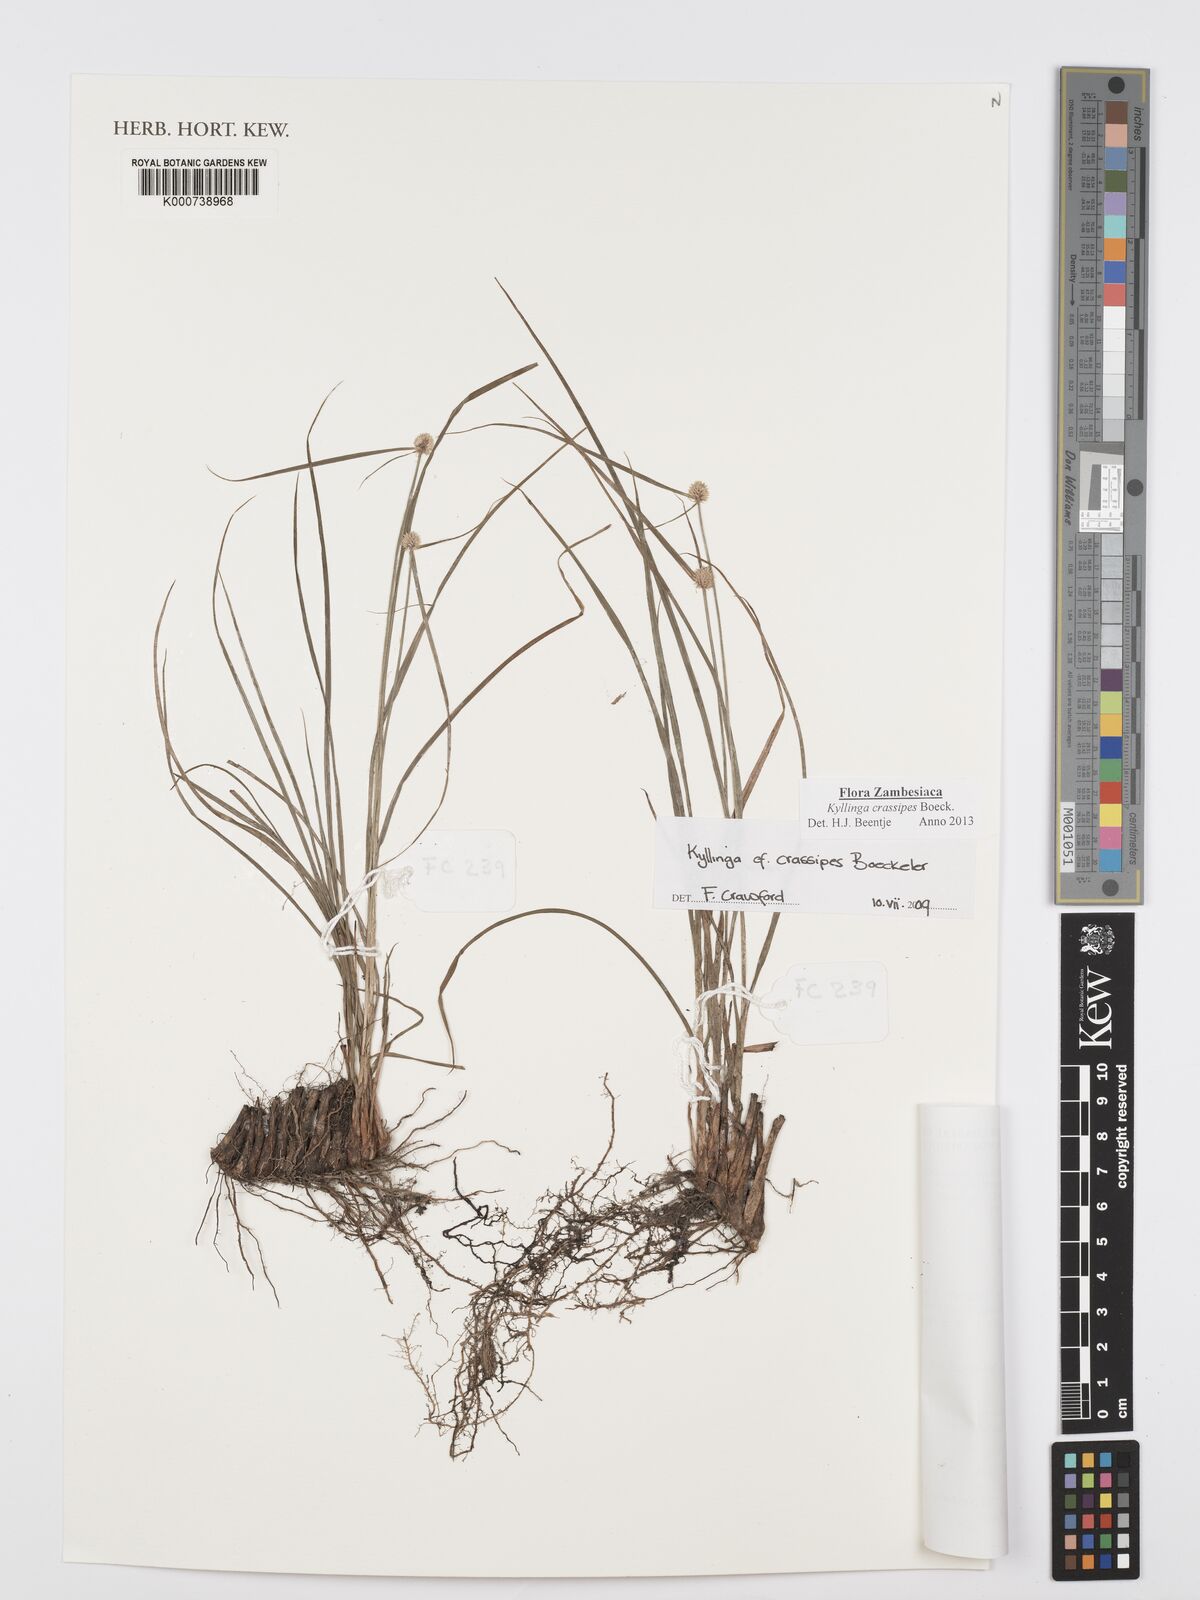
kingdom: Plantae
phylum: Tracheophyta
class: Liliopsida
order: Poales
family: Cyperaceae
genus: Cyperus
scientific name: Cyperus crassipes
